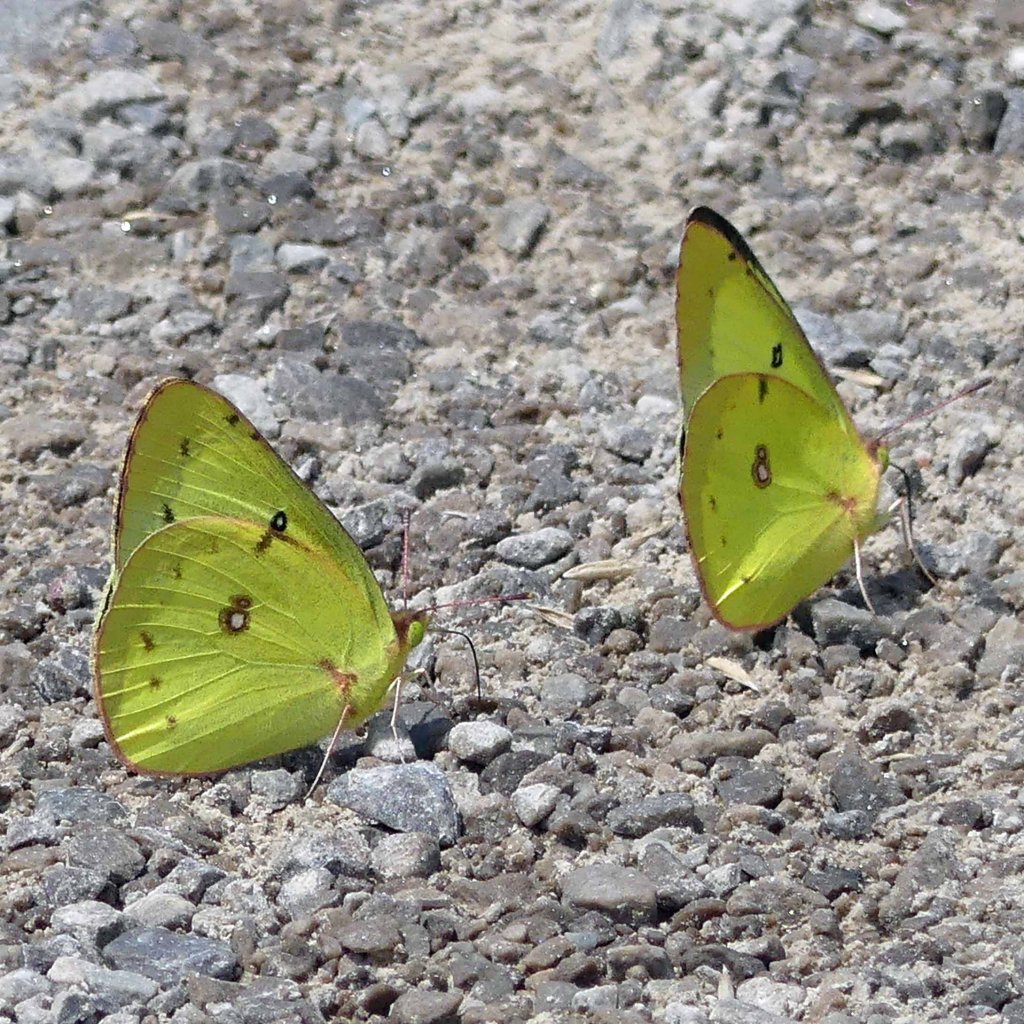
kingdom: Animalia
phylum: Arthropoda
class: Insecta
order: Lepidoptera
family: Pieridae
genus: Colias
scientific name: Colias philodice
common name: Clouded Sulphur
